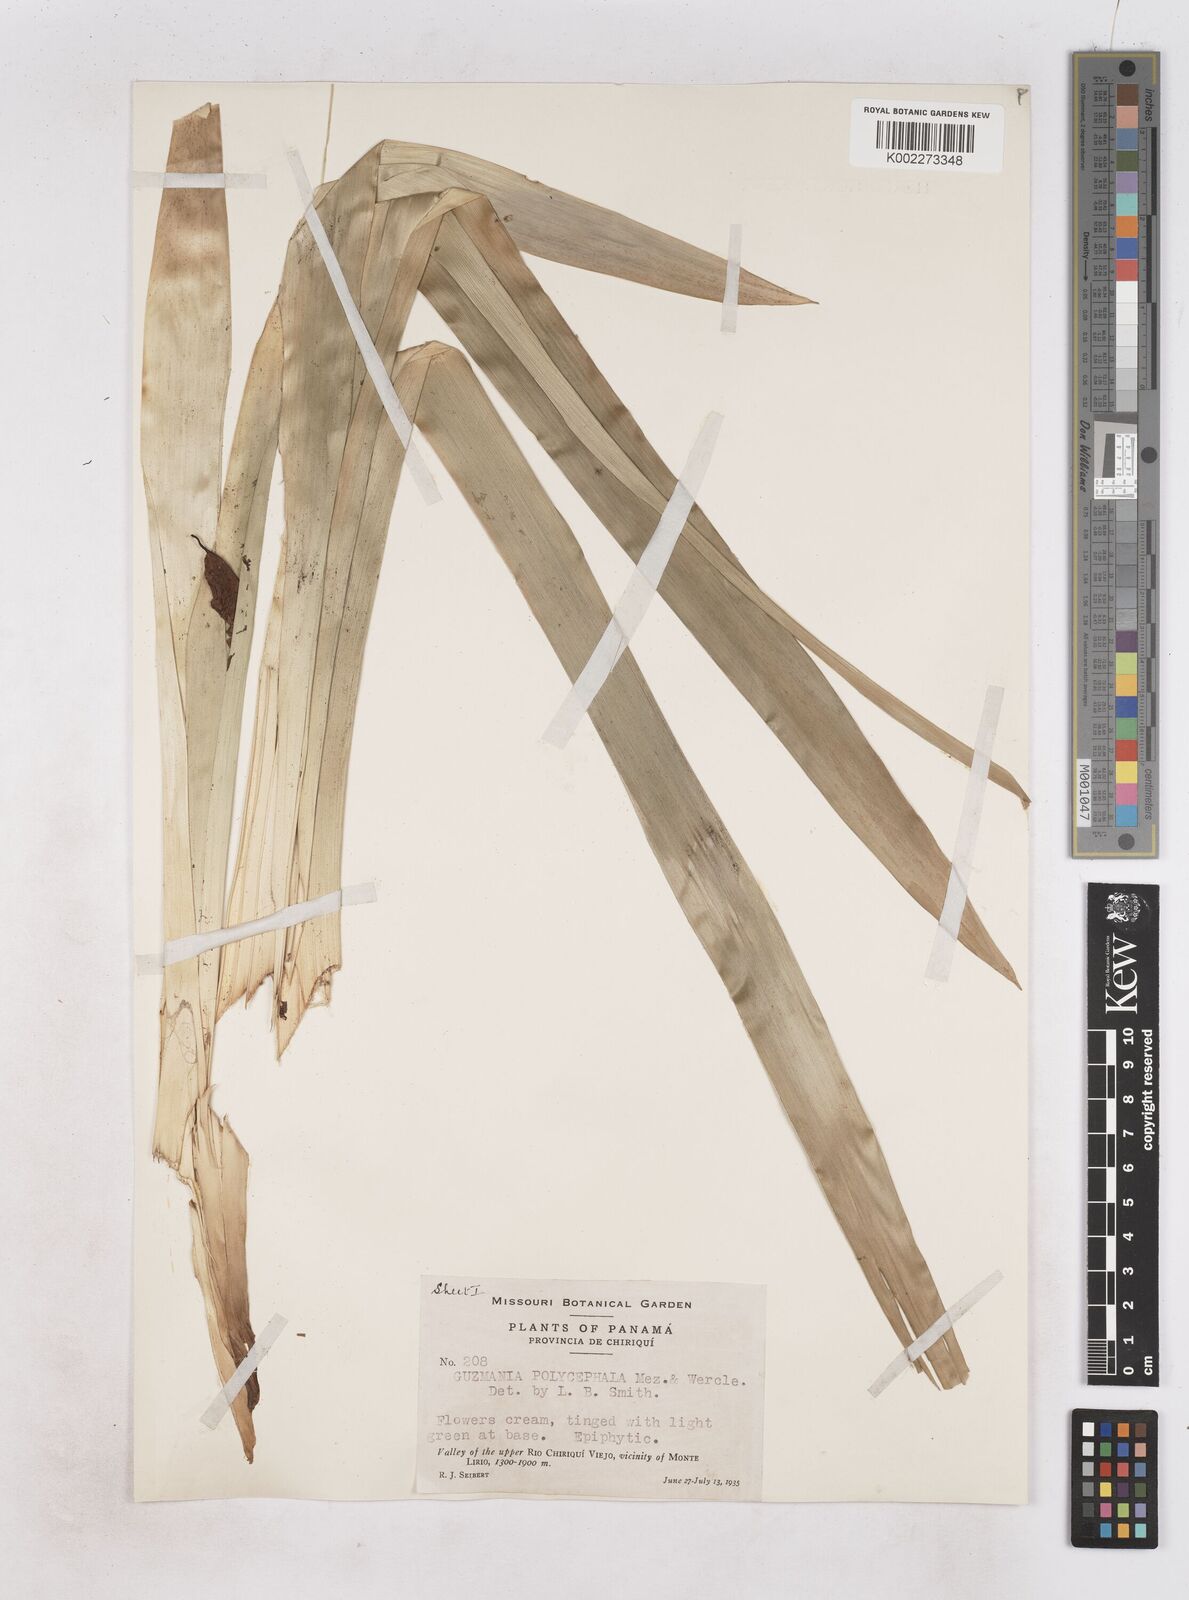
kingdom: Plantae
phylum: Tracheophyta
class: Liliopsida
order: Poales
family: Bromeliaceae
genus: Tillandsia
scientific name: Tillandsia polyantha
